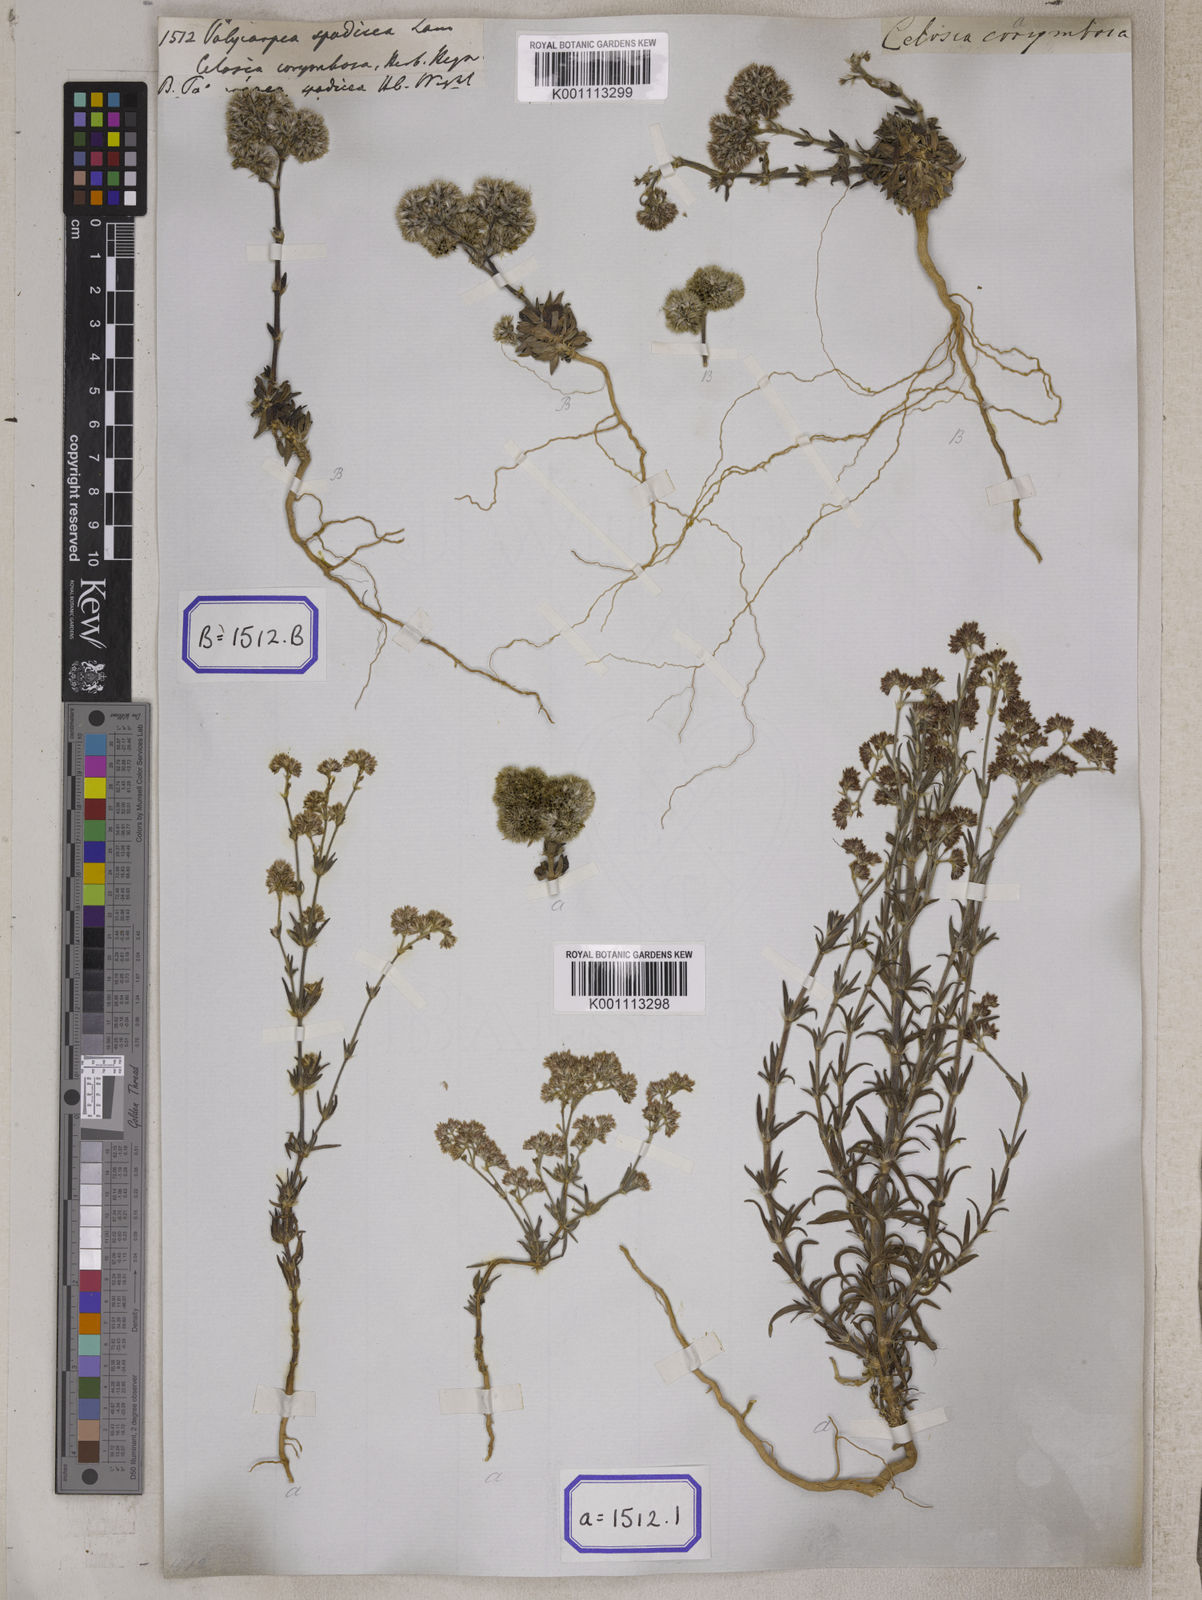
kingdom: Plantae
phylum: Tracheophyta
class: Magnoliopsida
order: Caryophyllales
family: Caryophyllaceae
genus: Polycarpaea
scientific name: Polycarpaea corymbosa
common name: Oldman's cap
